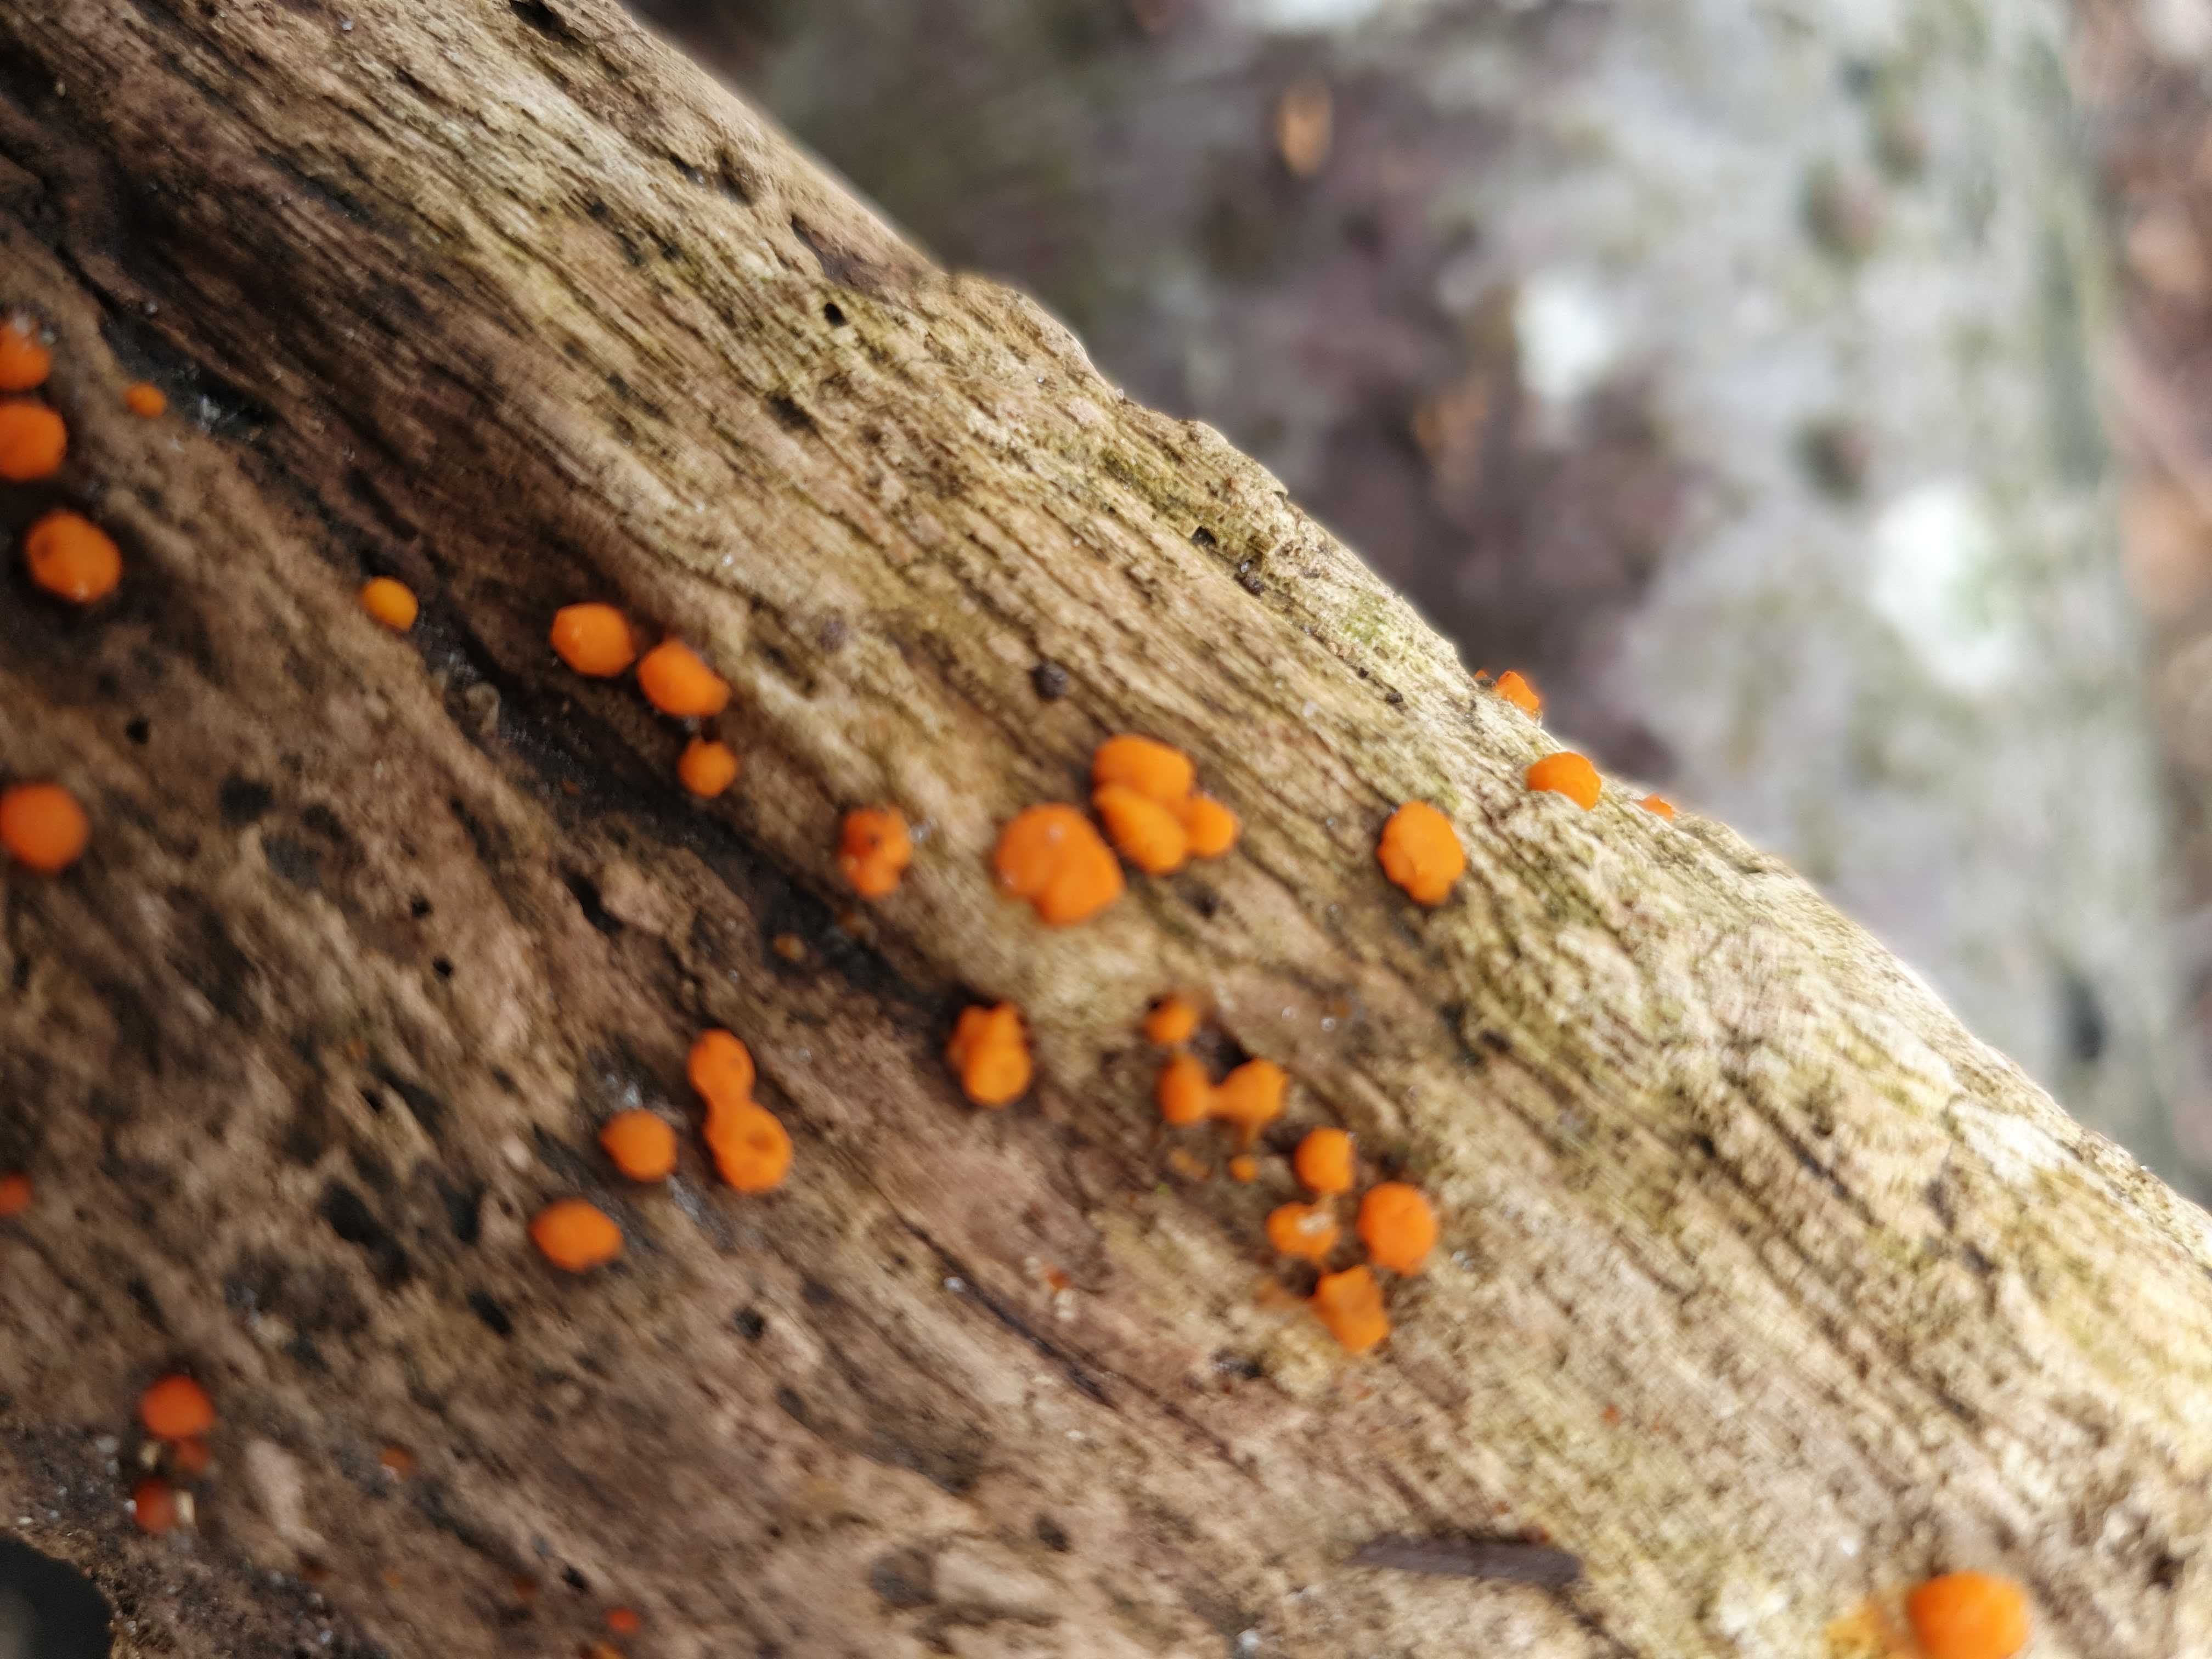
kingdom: Fungi
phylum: Basidiomycota
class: Dacrymycetes
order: Dacrymycetales
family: Dacrymycetaceae
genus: Dacrymyces
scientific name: Dacrymyces stillatus
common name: almindelig tåresvamp
